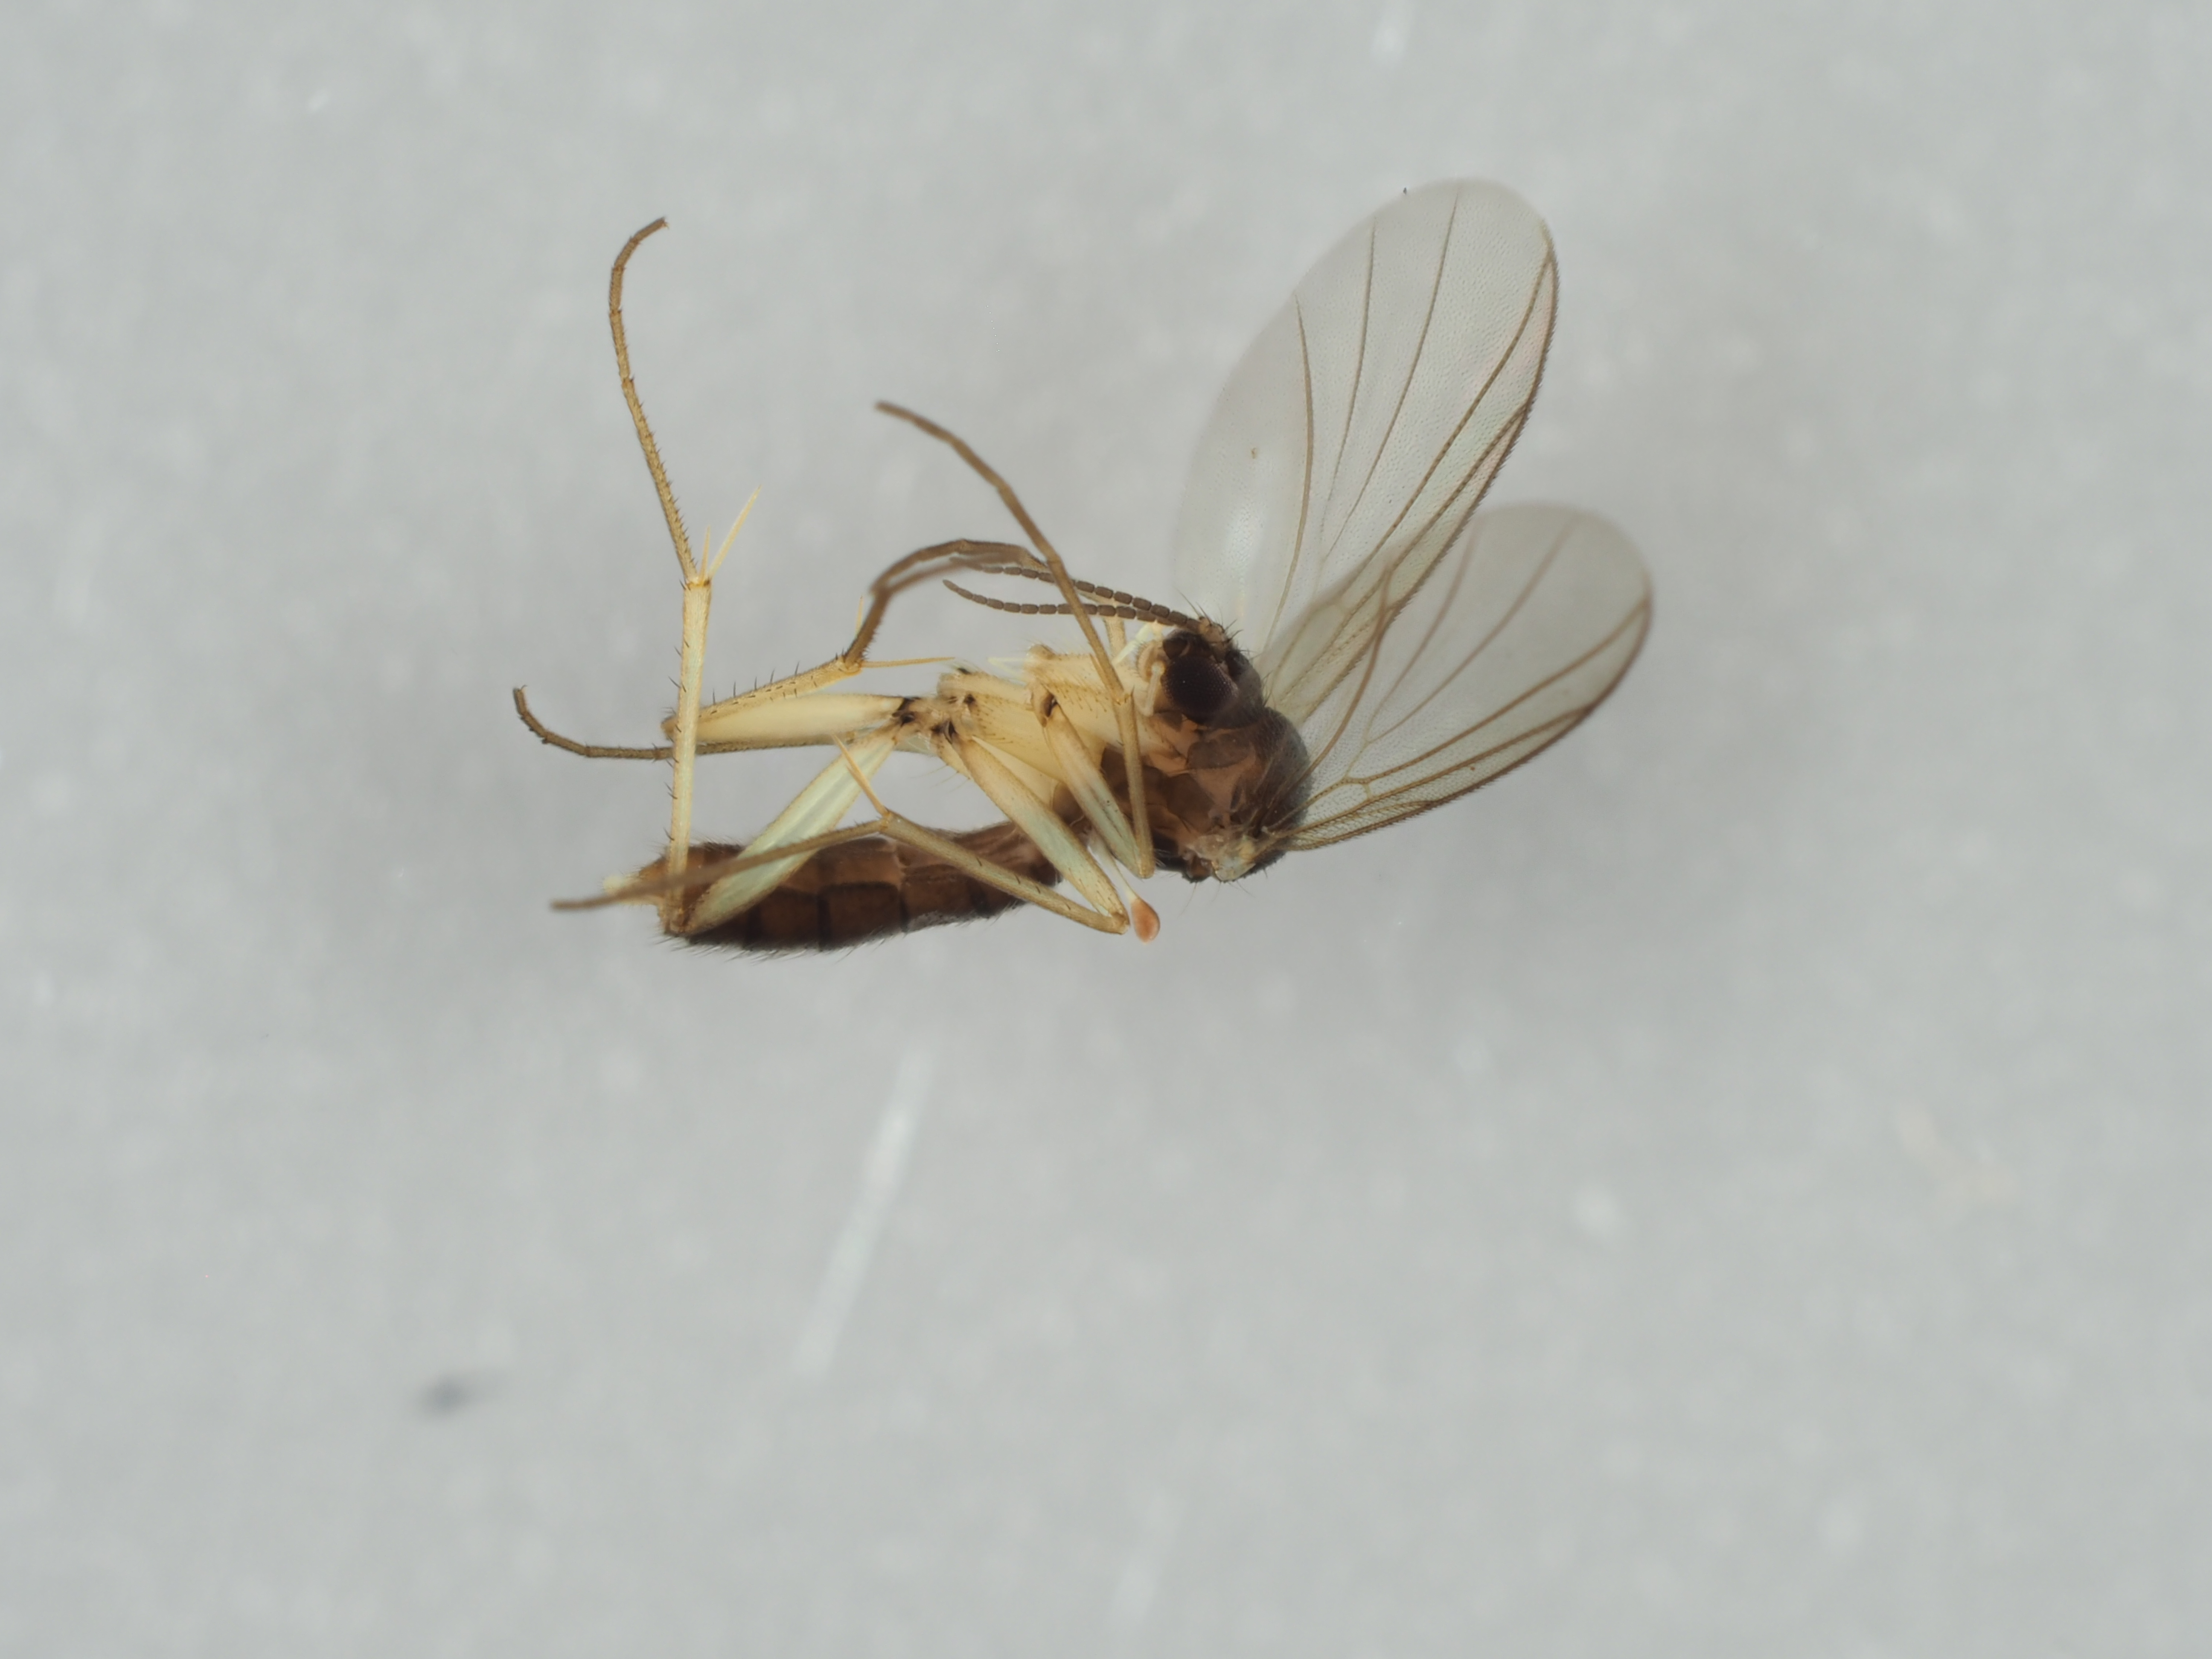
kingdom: Animalia
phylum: Arthropoda
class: Insecta
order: Diptera
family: Mycetophilidae
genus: Acnemia
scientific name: Acnemia nitidicollis
